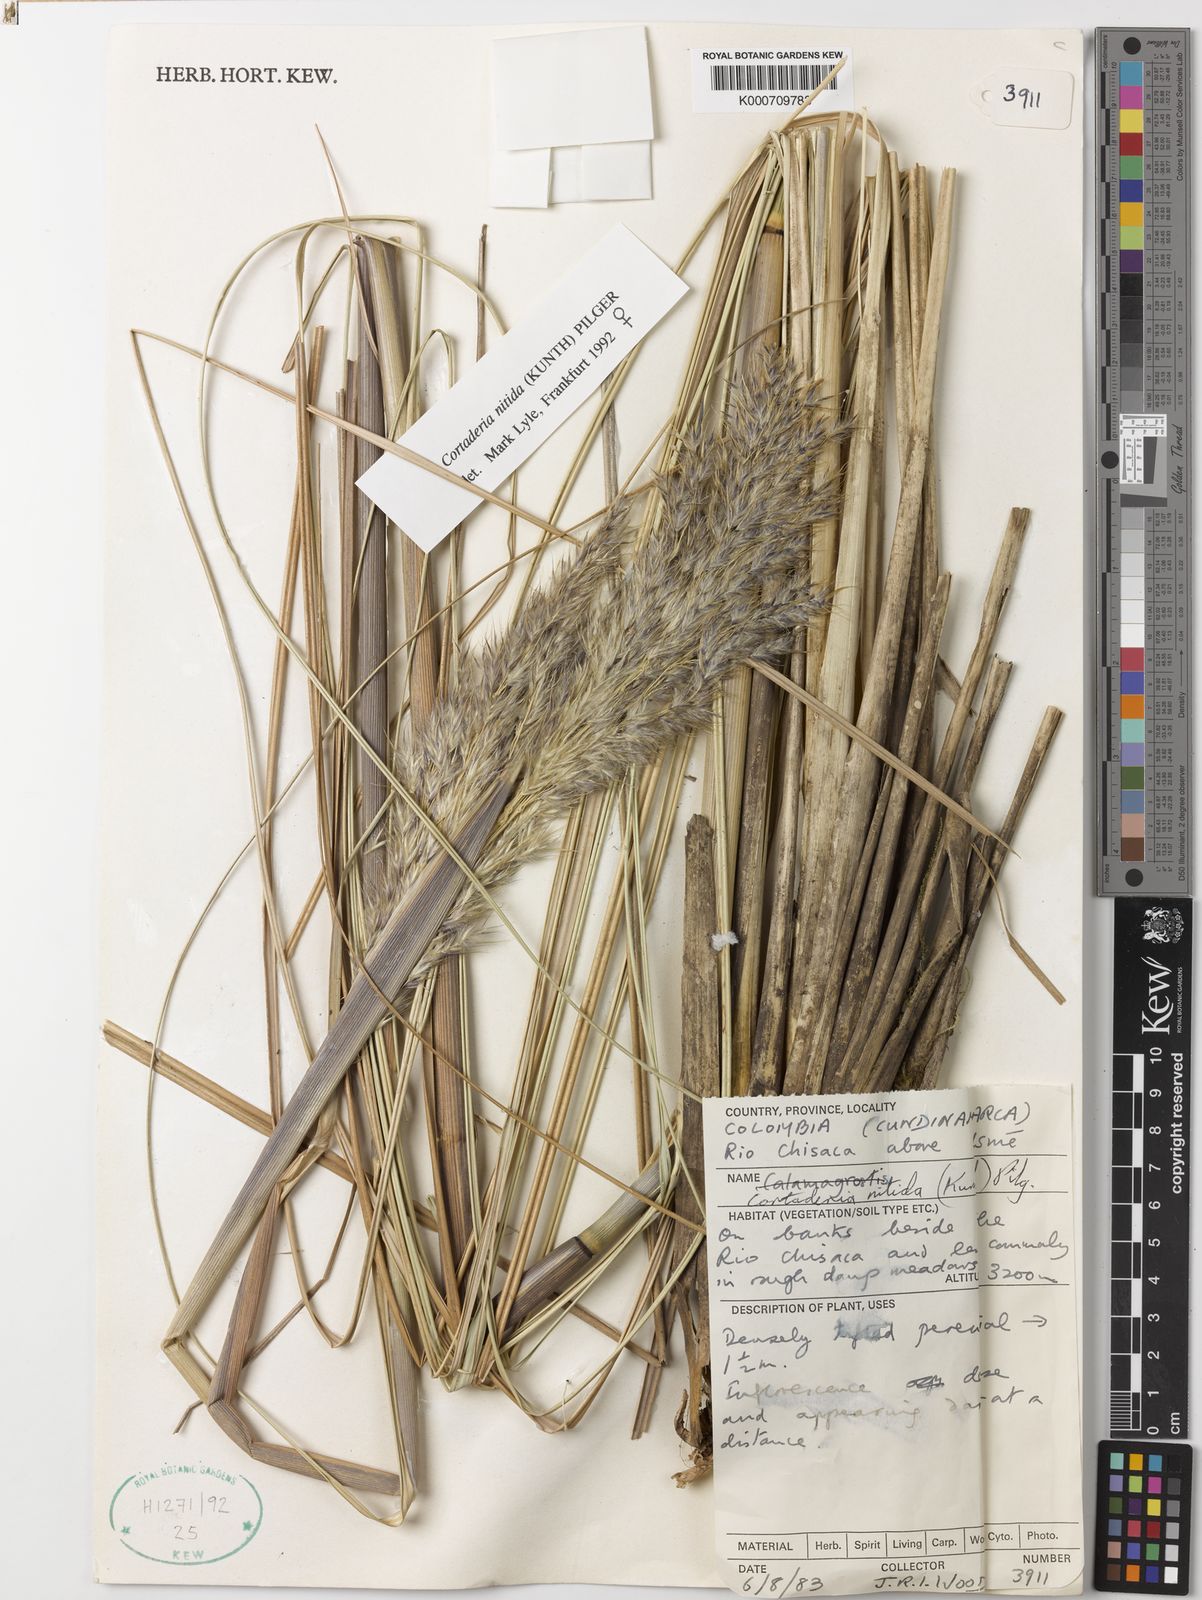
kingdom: Plantae
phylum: Tracheophyta
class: Liliopsida
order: Poales
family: Poaceae
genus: Cortaderia
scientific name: Cortaderia nitida
